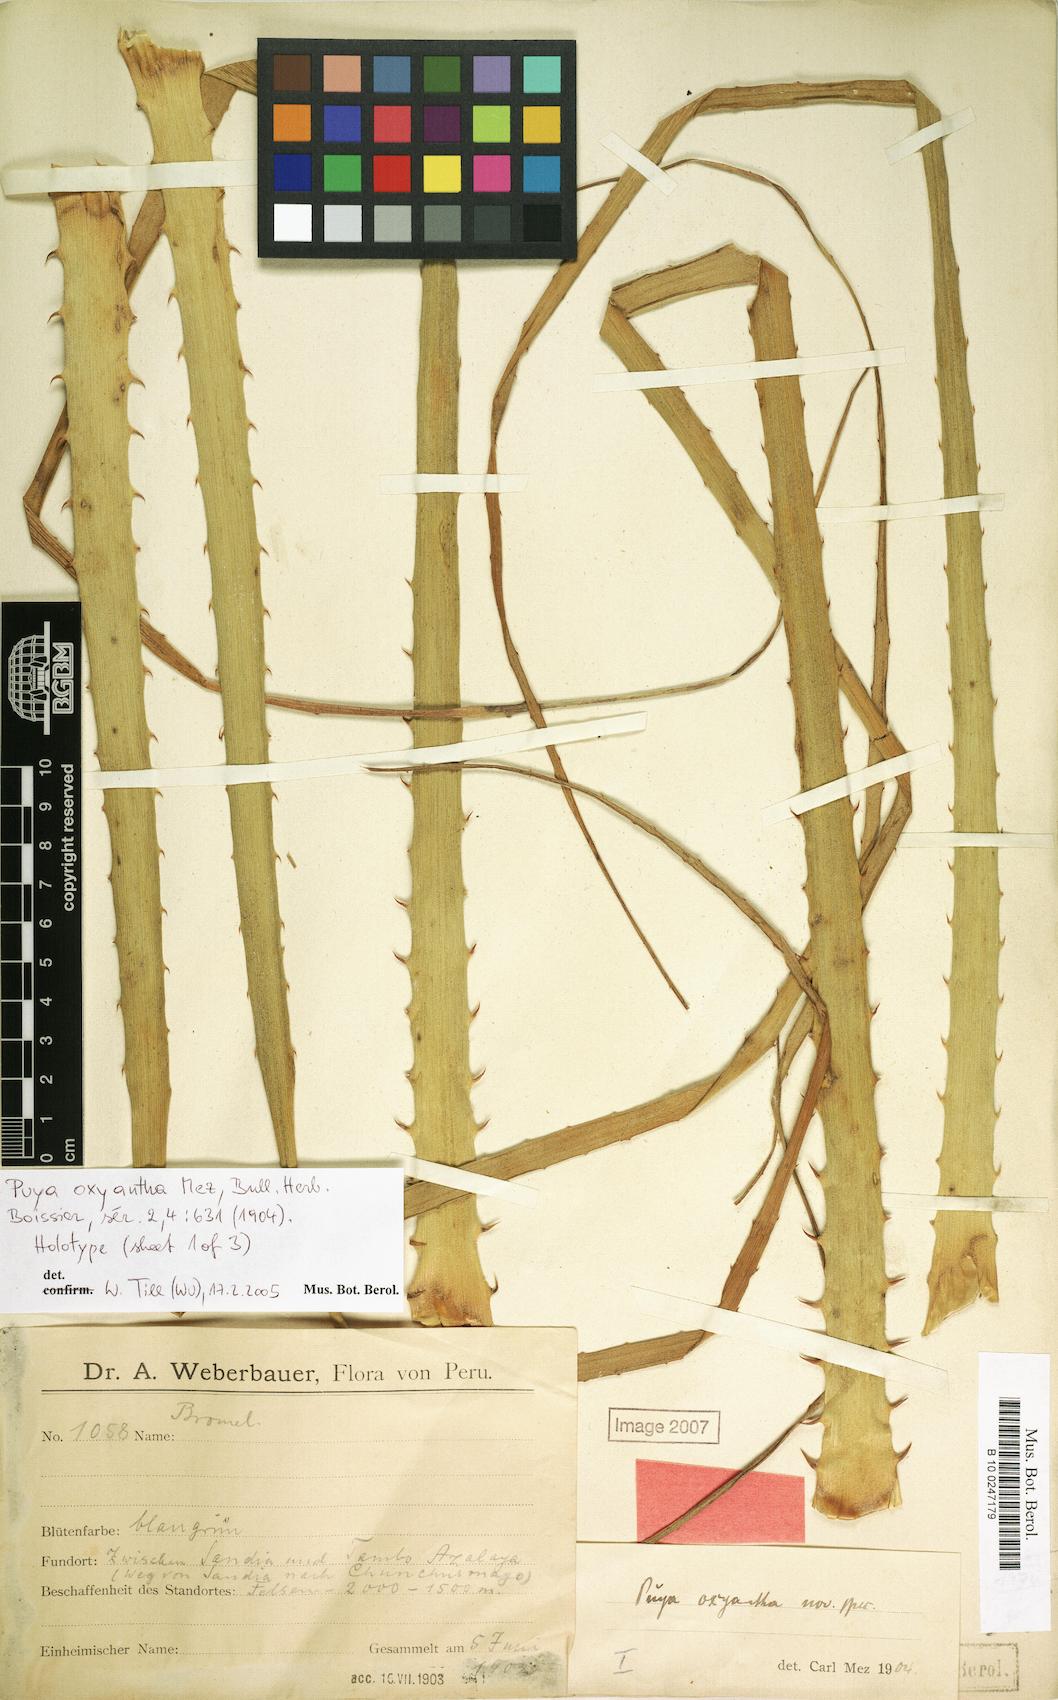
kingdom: Plantae
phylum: Tracheophyta
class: Liliopsida
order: Poales
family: Bromeliaceae
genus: Puya
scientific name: Puya oxyantha
